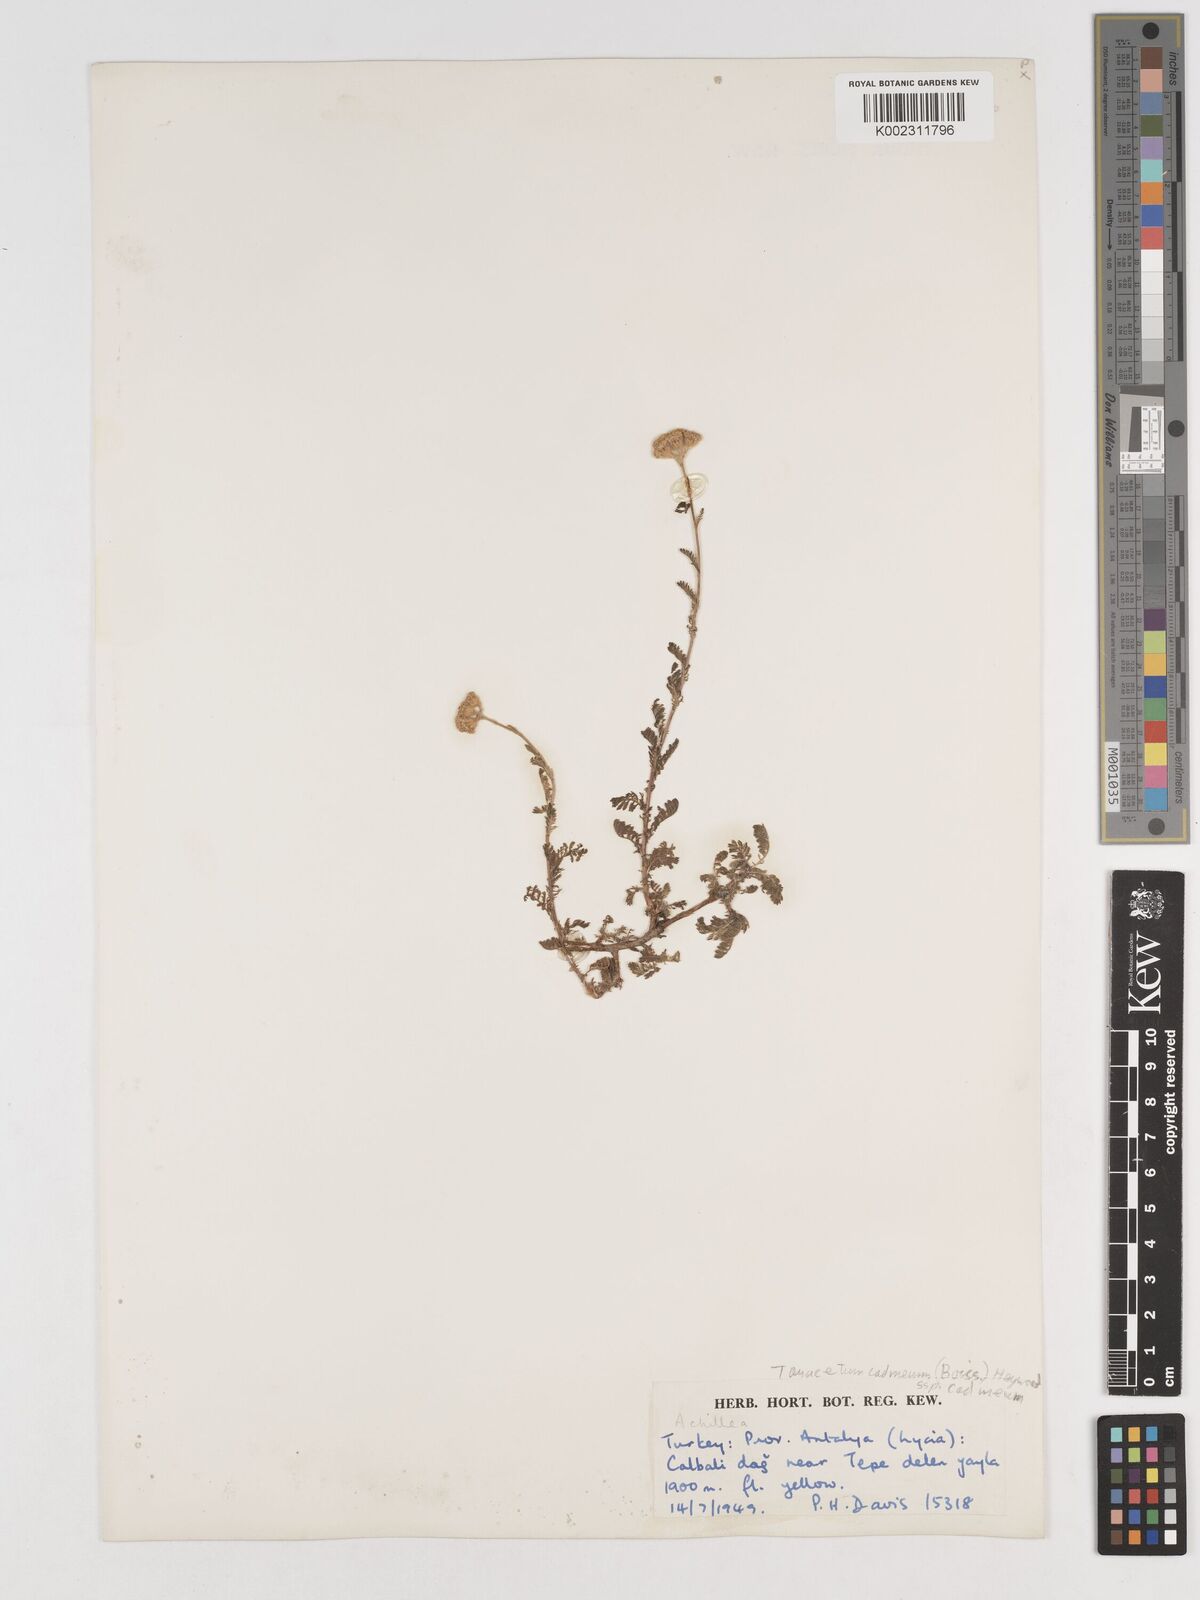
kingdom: Plantae
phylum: Tracheophyta
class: Magnoliopsida
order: Asterales
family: Asteraceae
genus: Tanacetum
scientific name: Tanacetum cadmeum
